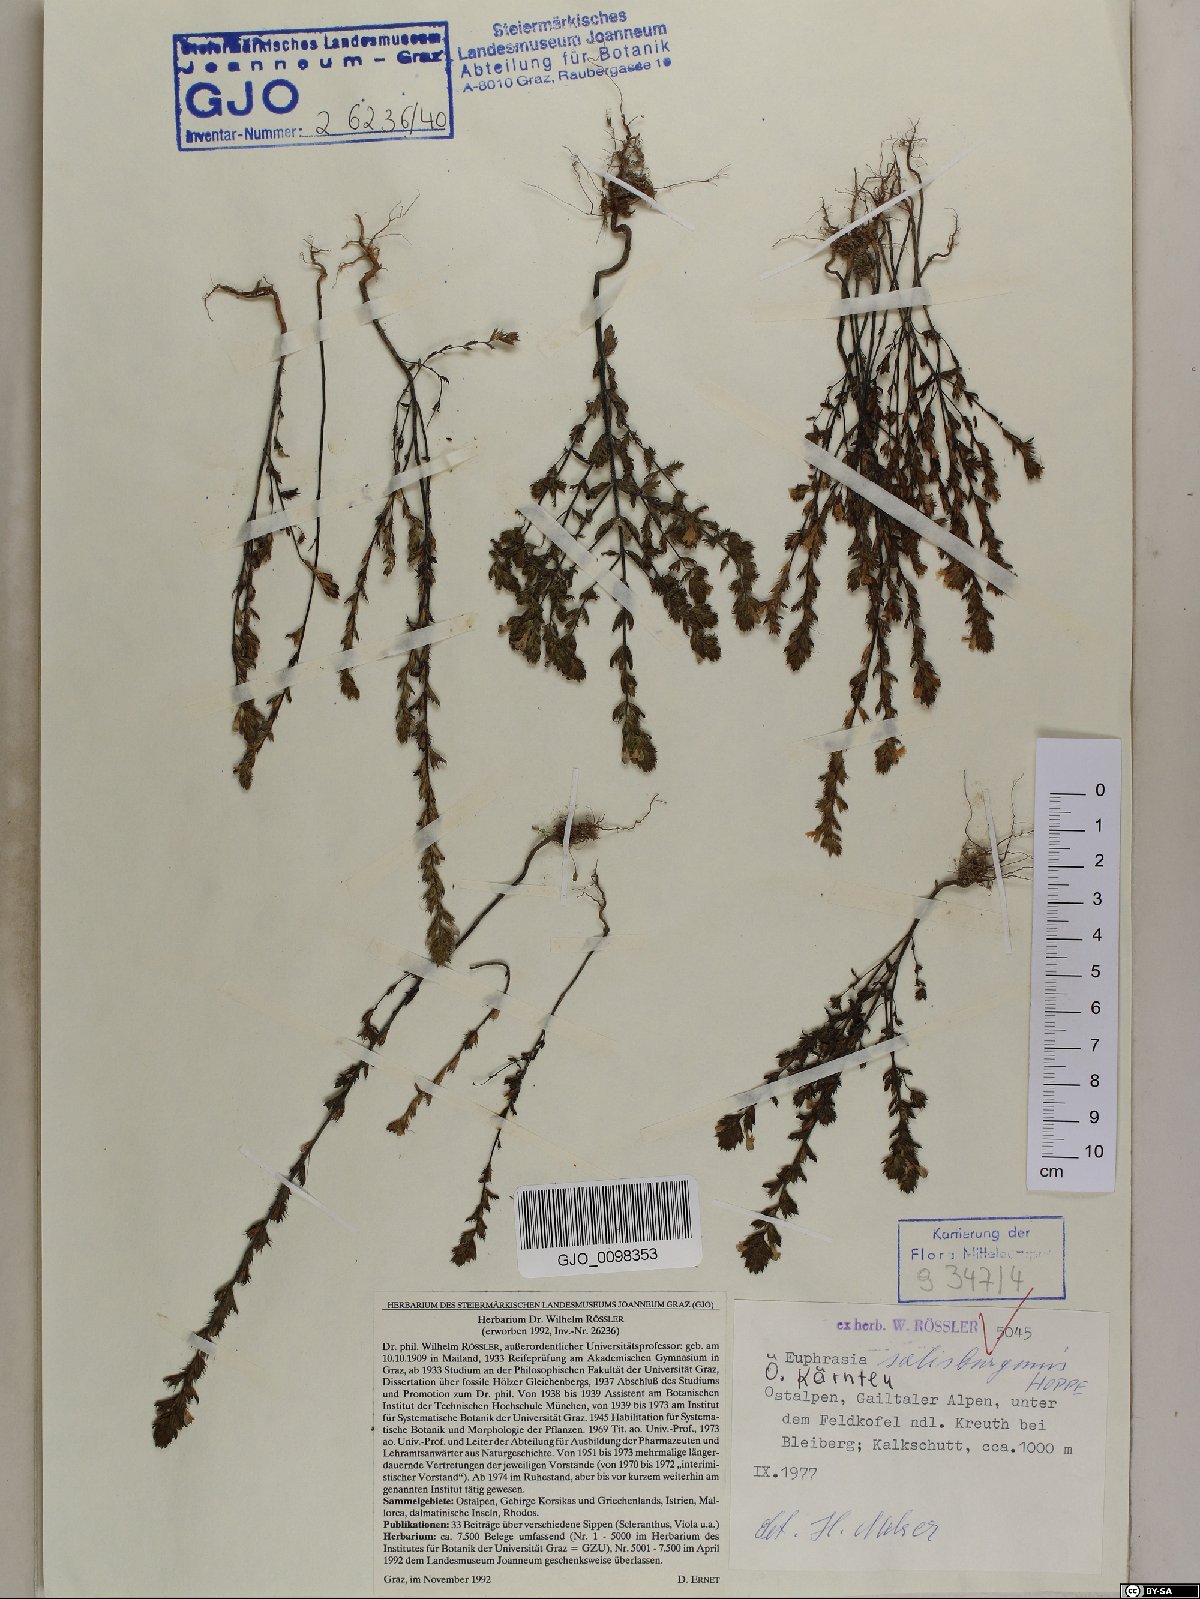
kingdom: Plantae
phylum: Tracheophyta
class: Magnoliopsida
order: Lamiales
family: Orobanchaceae
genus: Euphrasia
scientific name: Euphrasia salisburgensis
